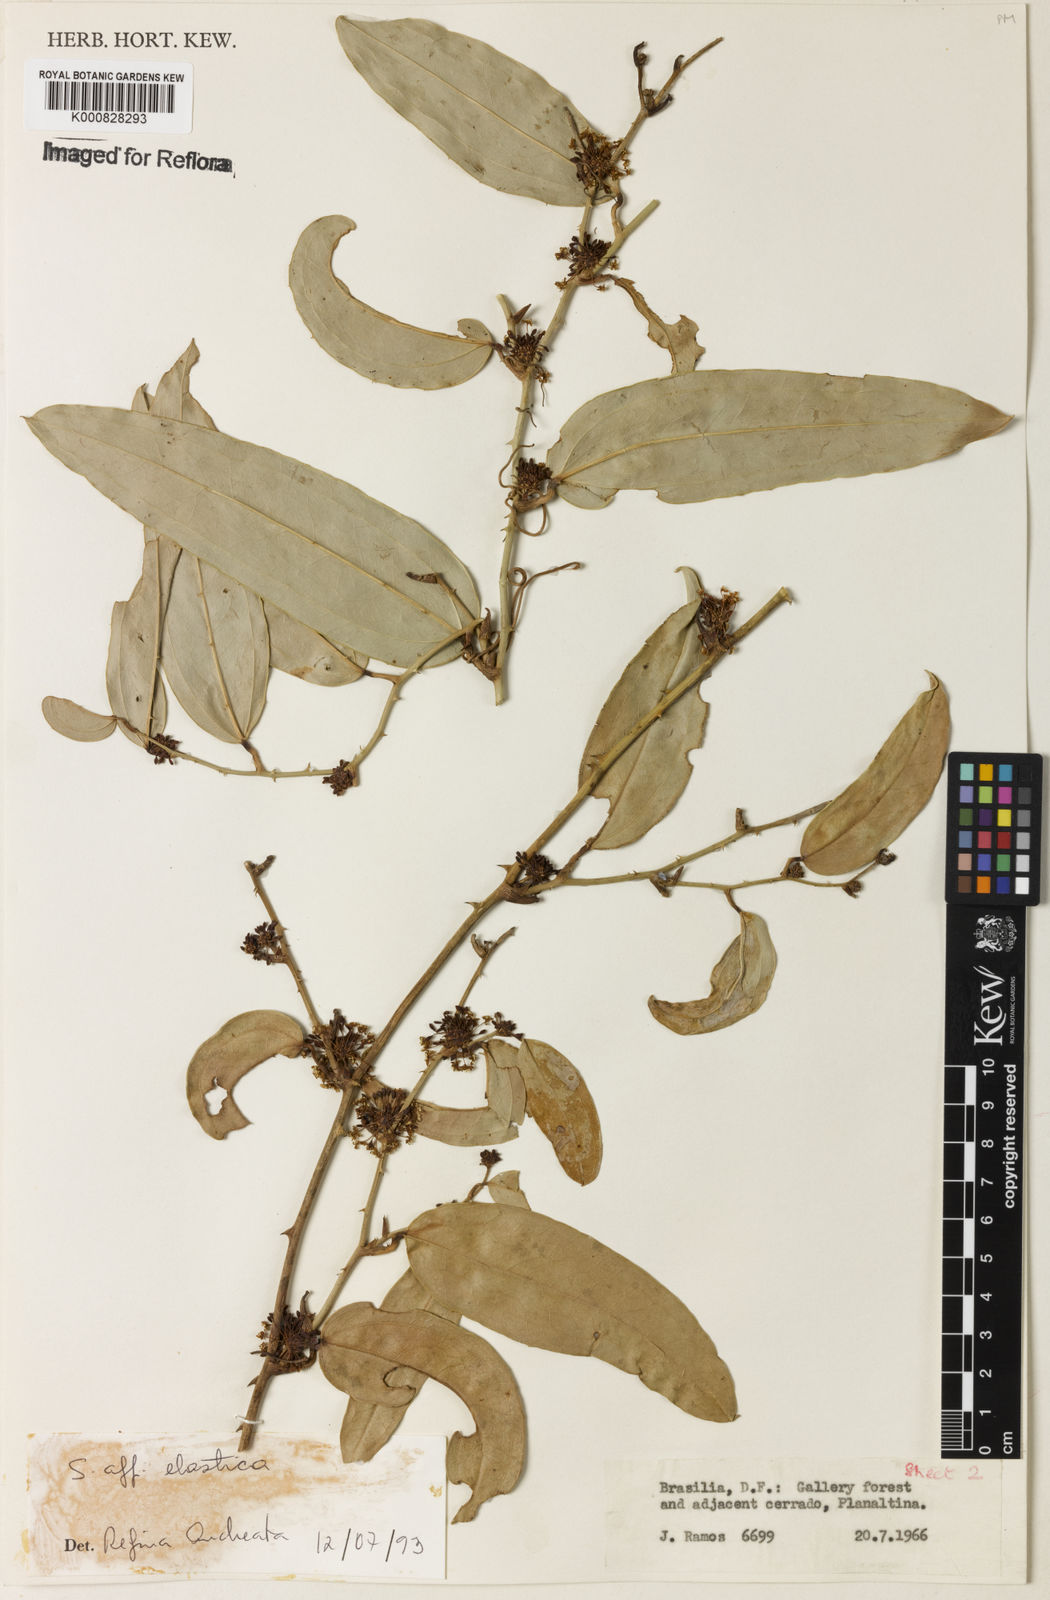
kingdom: Plantae
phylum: Tracheophyta
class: Liliopsida
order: Liliales
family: Smilacaceae
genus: Smilax
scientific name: Smilax elastica
